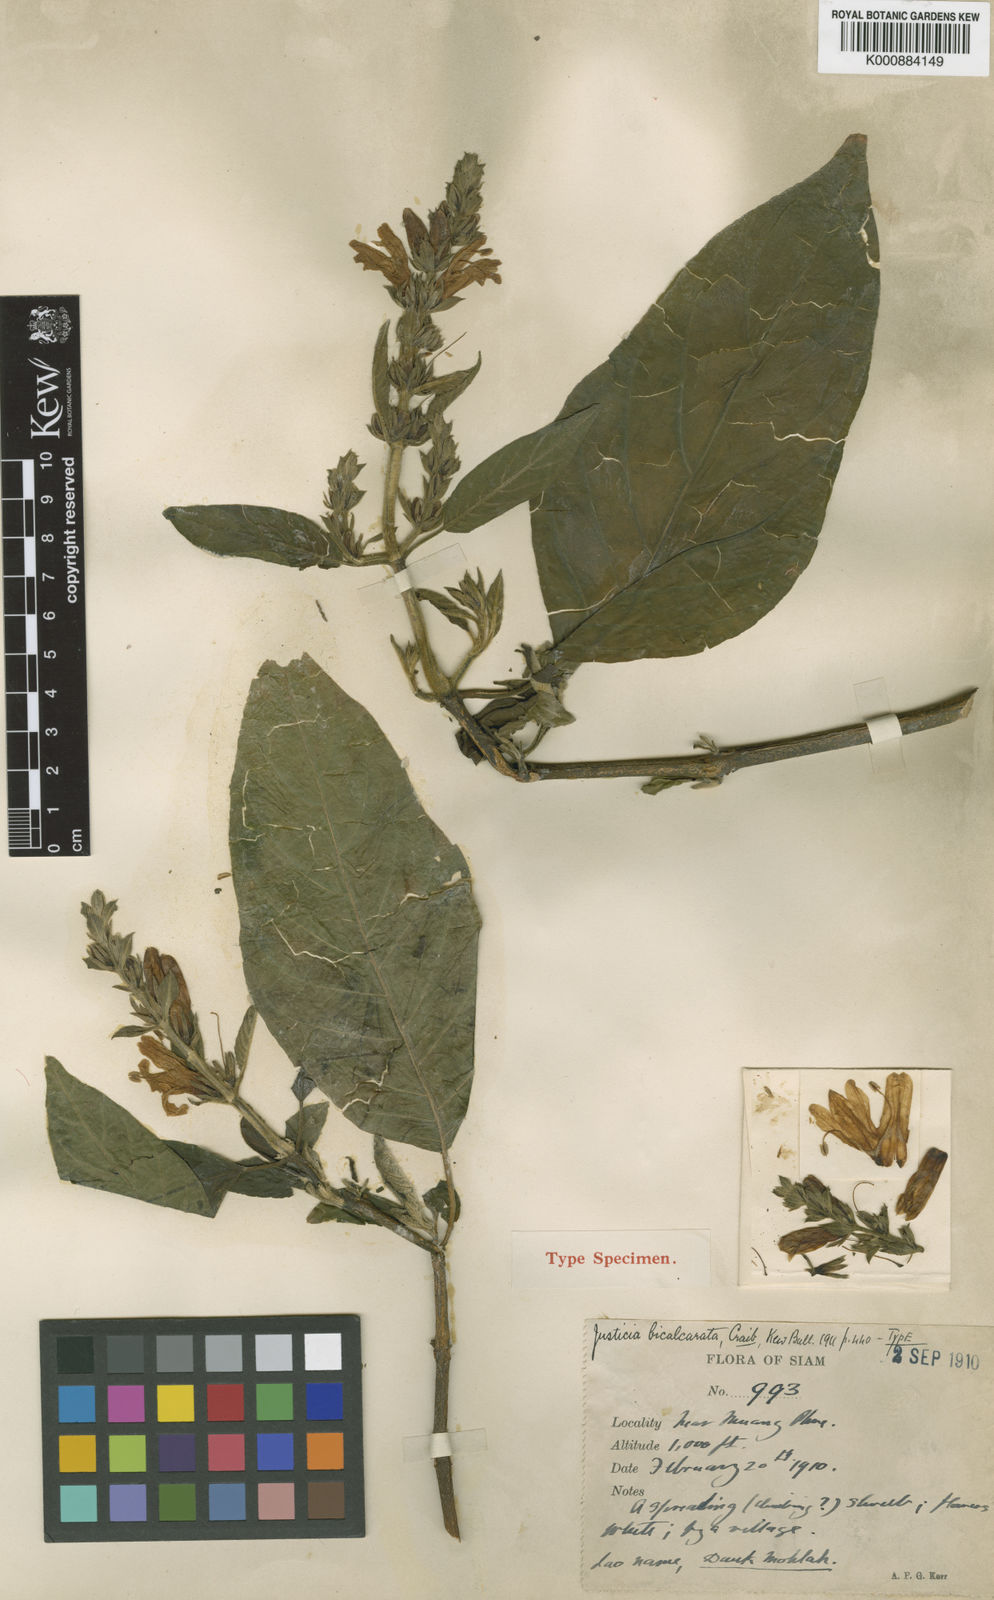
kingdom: Plantae
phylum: Tracheophyta
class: Magnoliopsida
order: Lamiales
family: Acanthaceae
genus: Justicia
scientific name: Justicia bicalcarata
